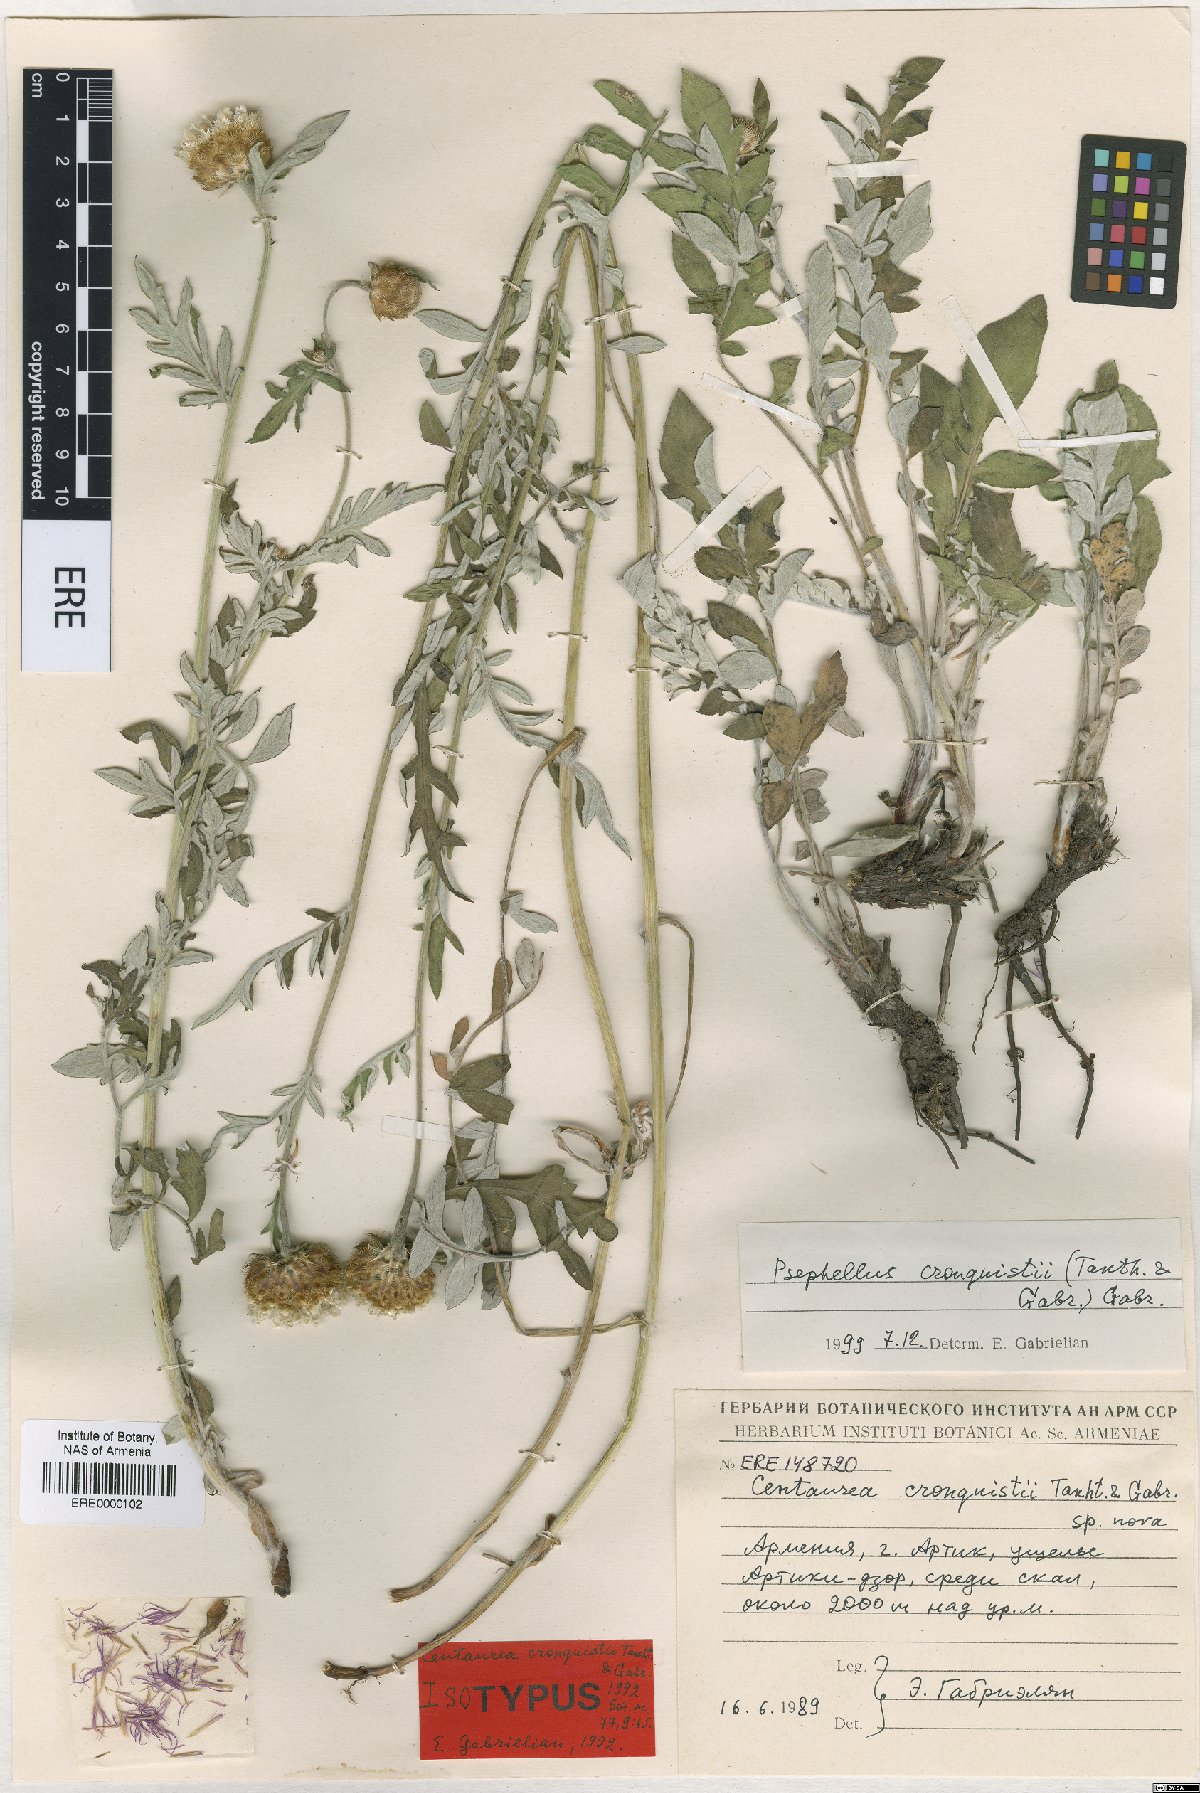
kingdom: Plantae
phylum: Tracheophyta
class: Magnoliopsida
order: Asterales
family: Asteraceae
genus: Psephellus
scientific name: Psephellus cronquistii
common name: Cronquists's cornflower
